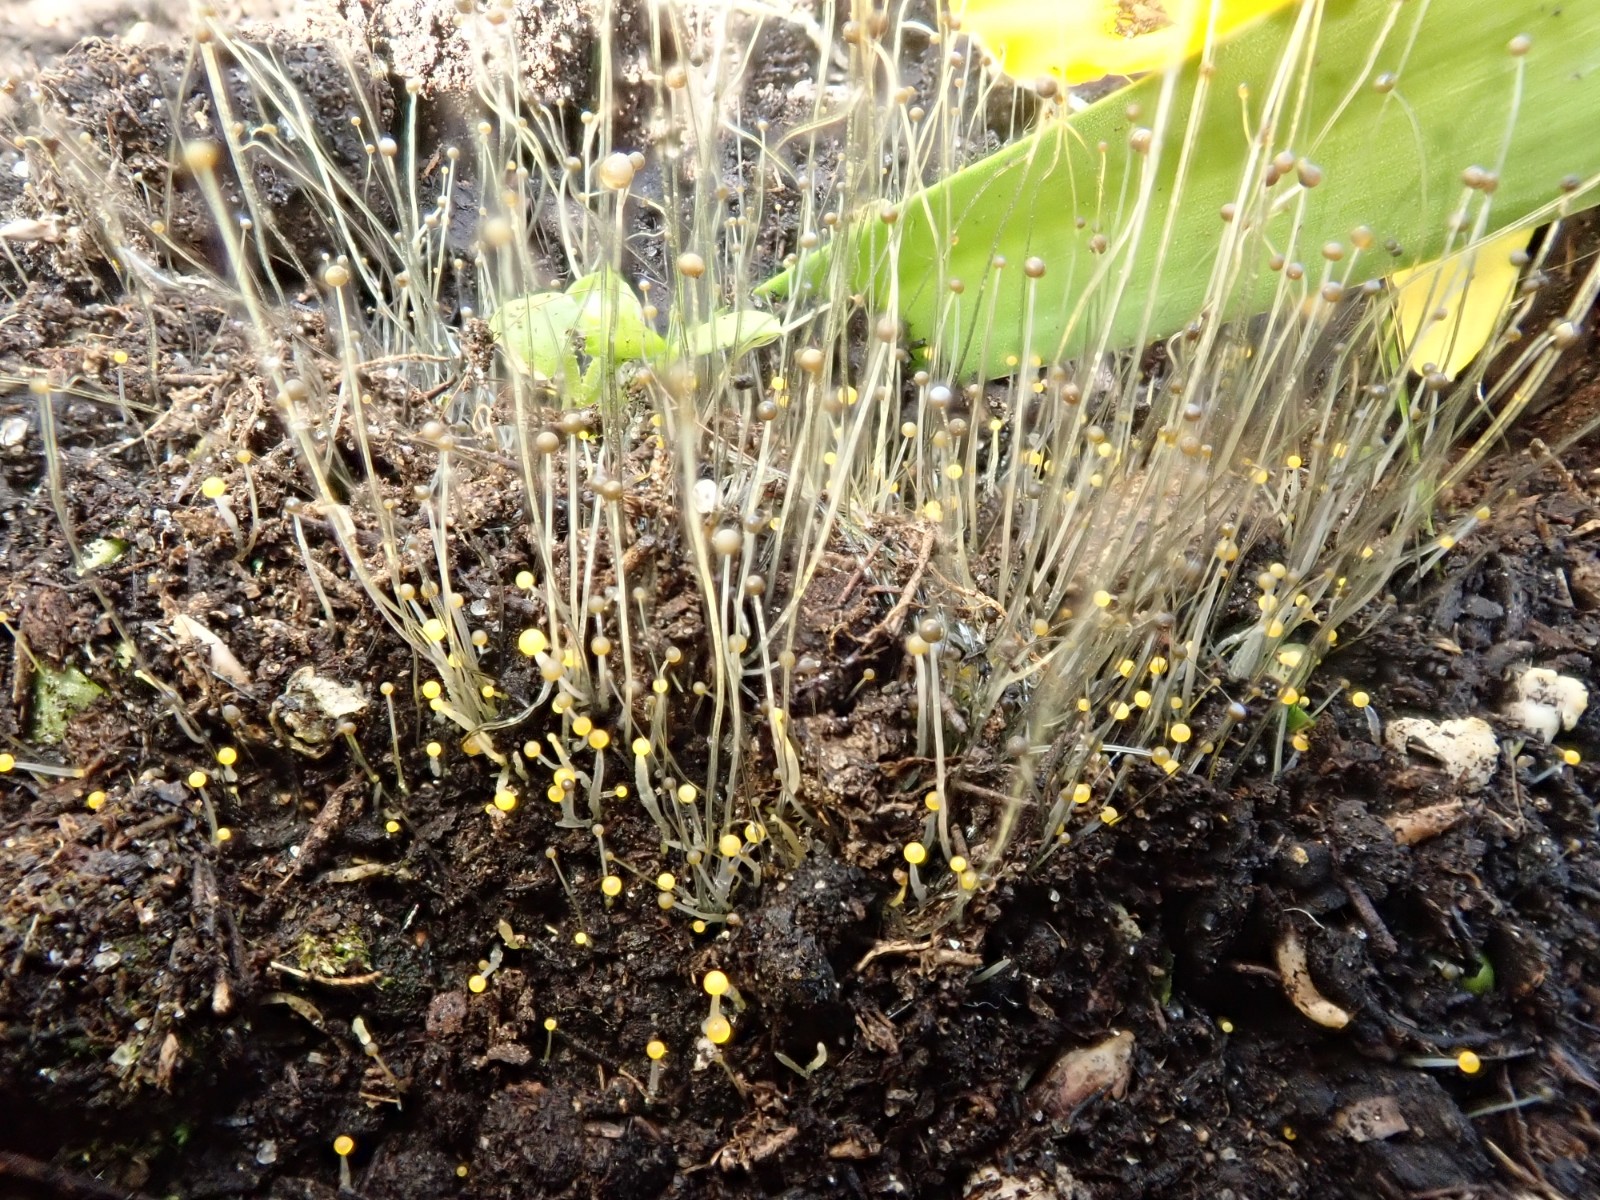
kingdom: Fungi
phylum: Mucoromycota
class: Mucoromycetes
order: Mucorales
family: Phycomycetaceae
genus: Phycomyces
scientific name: Phycomyces blakesleeanus
